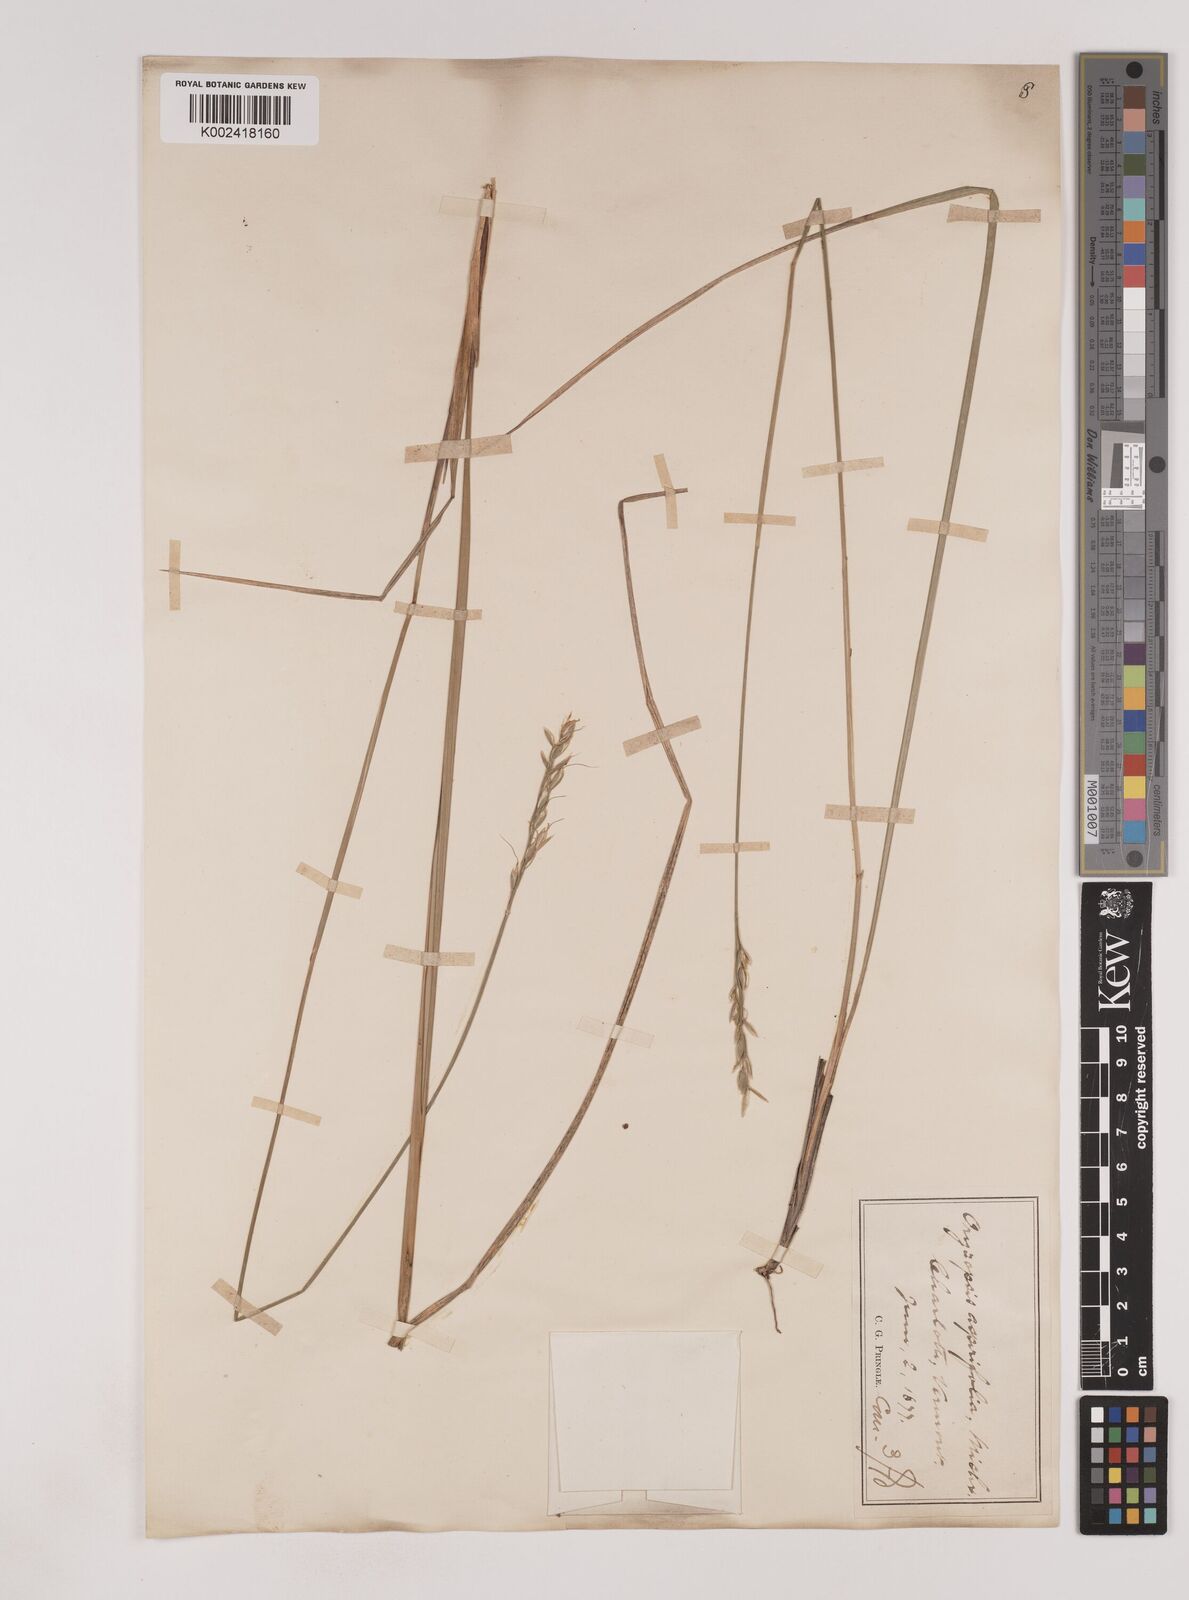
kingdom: Plantae
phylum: Tracheophyta
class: Liliopsida
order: Poales
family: Poaceae
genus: Oryzopsis
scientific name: Oryzopsis asperifolia
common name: Rough-leaved mountain rice
